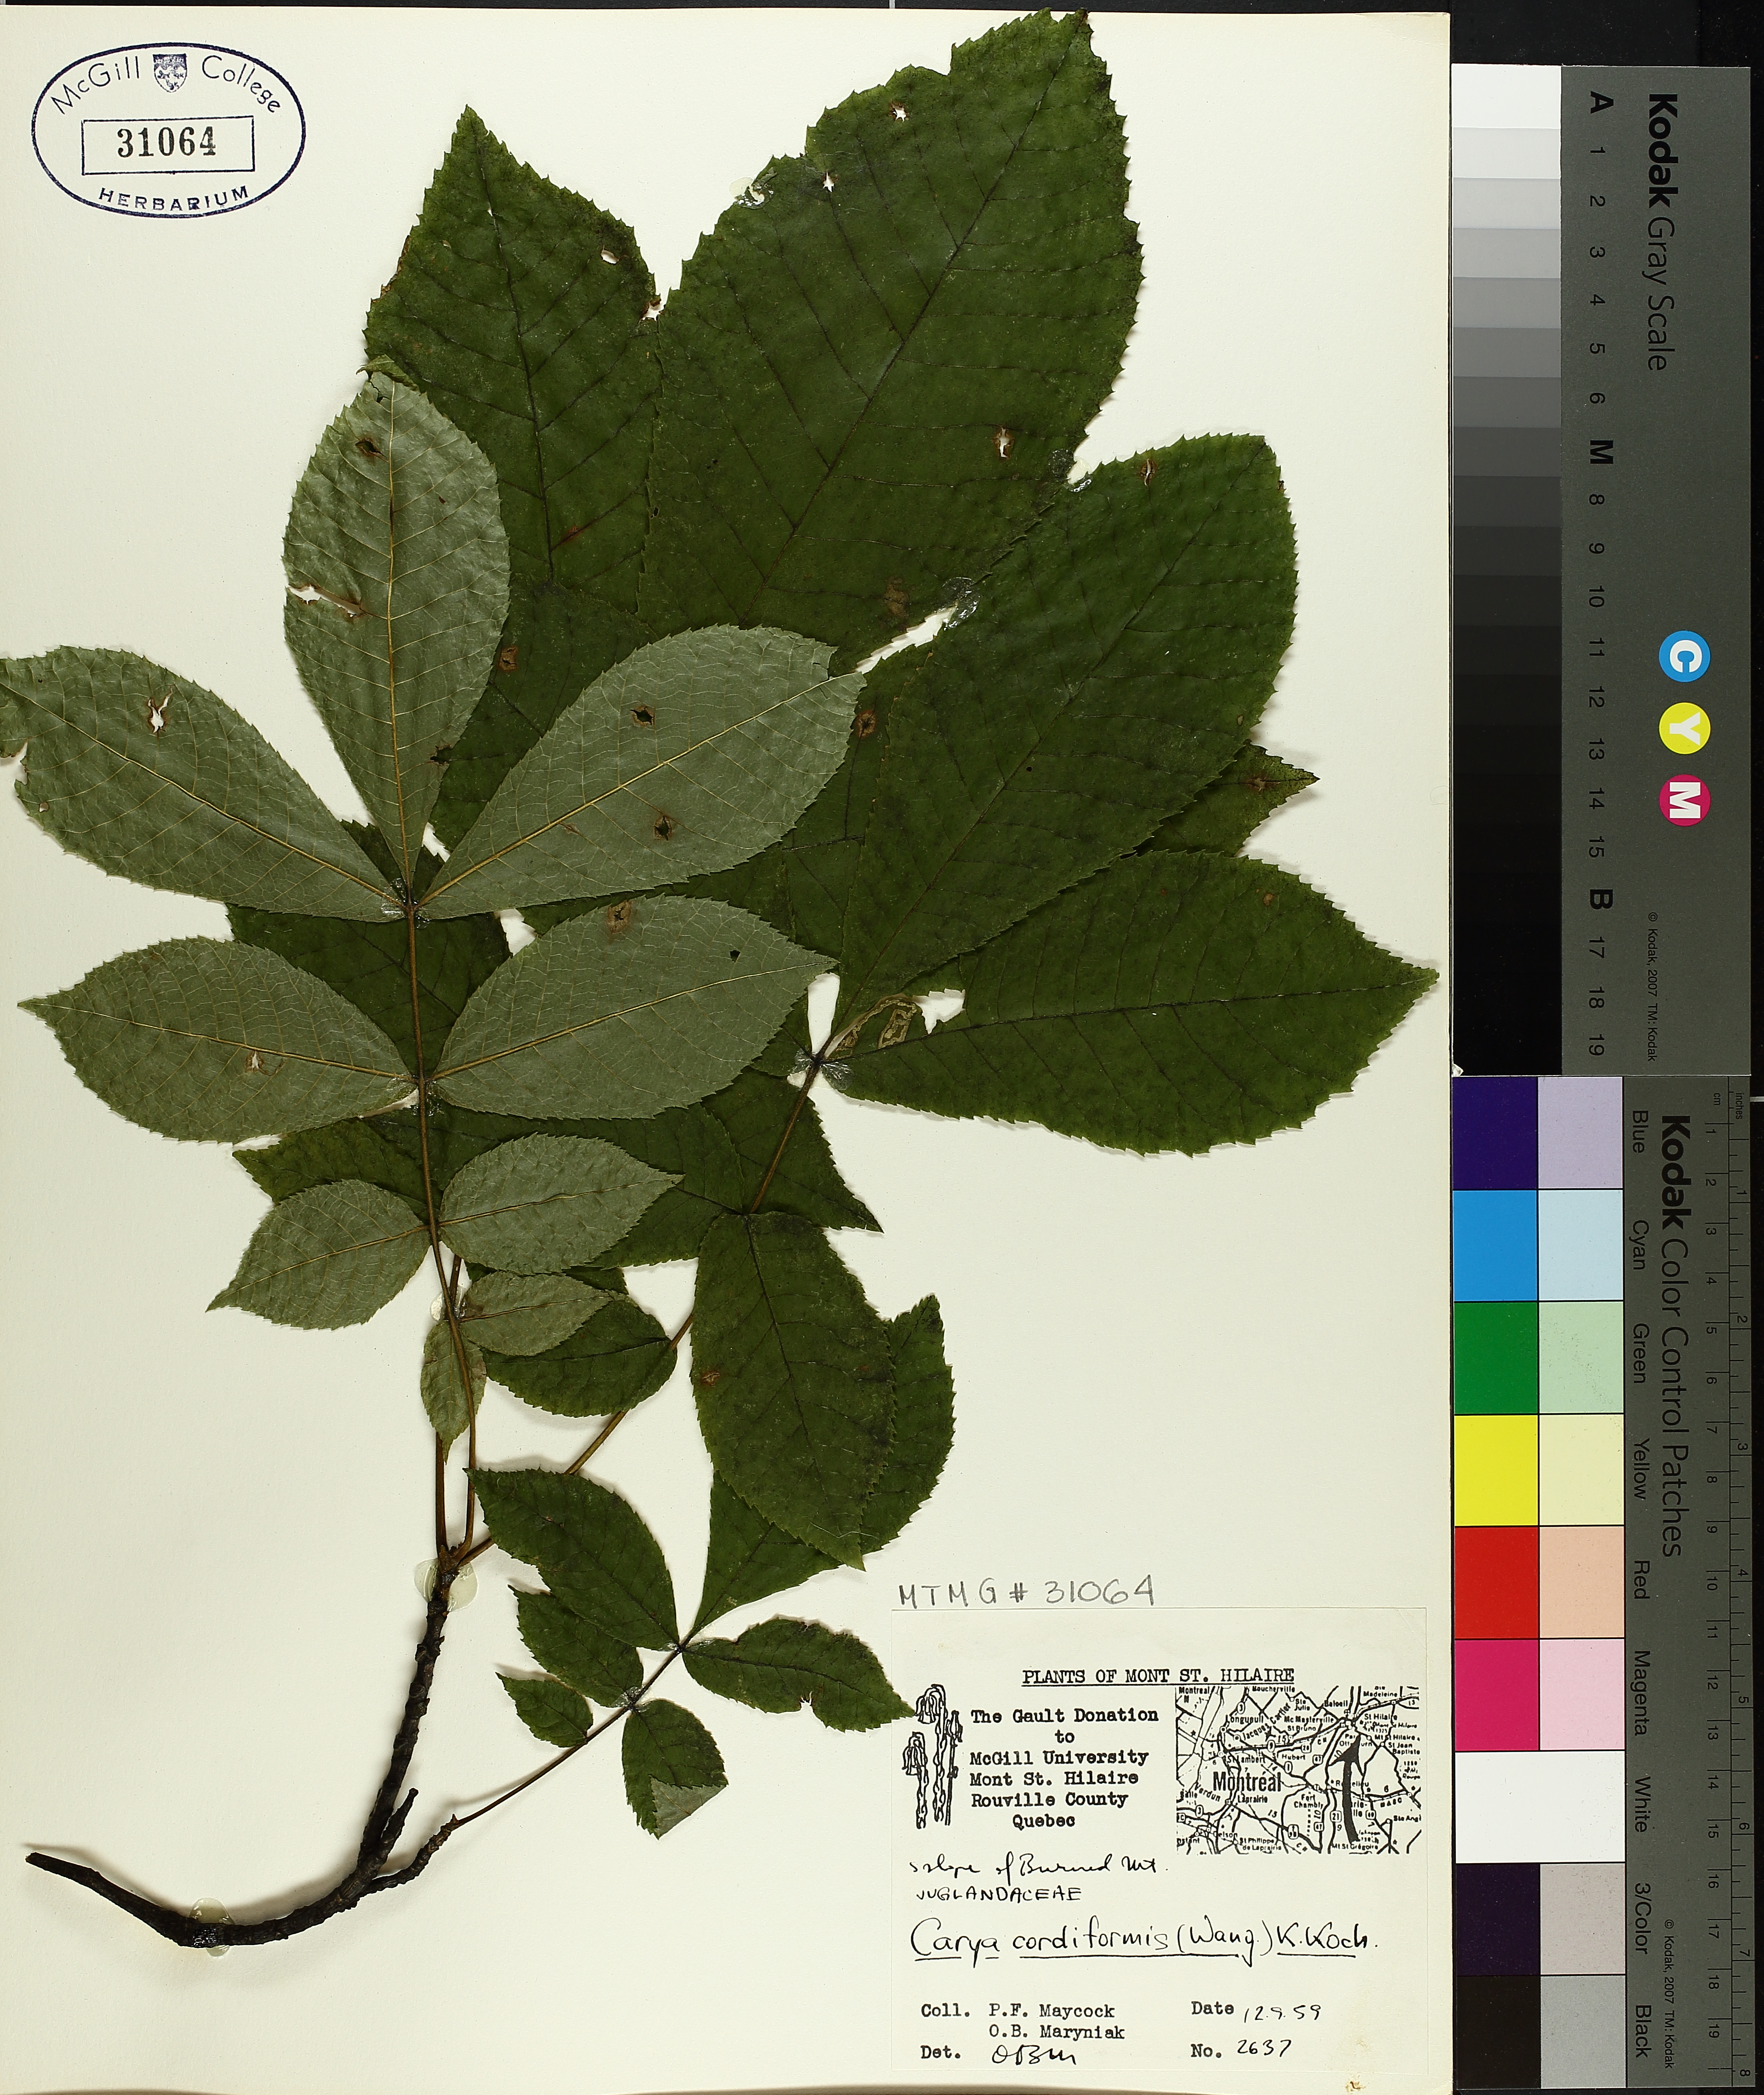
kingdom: Plantae
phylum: Tracheophyta
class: Magnoliopsida
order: Fagales
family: Juglandaceae
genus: Carya
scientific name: Carya cordiformis
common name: Bitternut hickory
